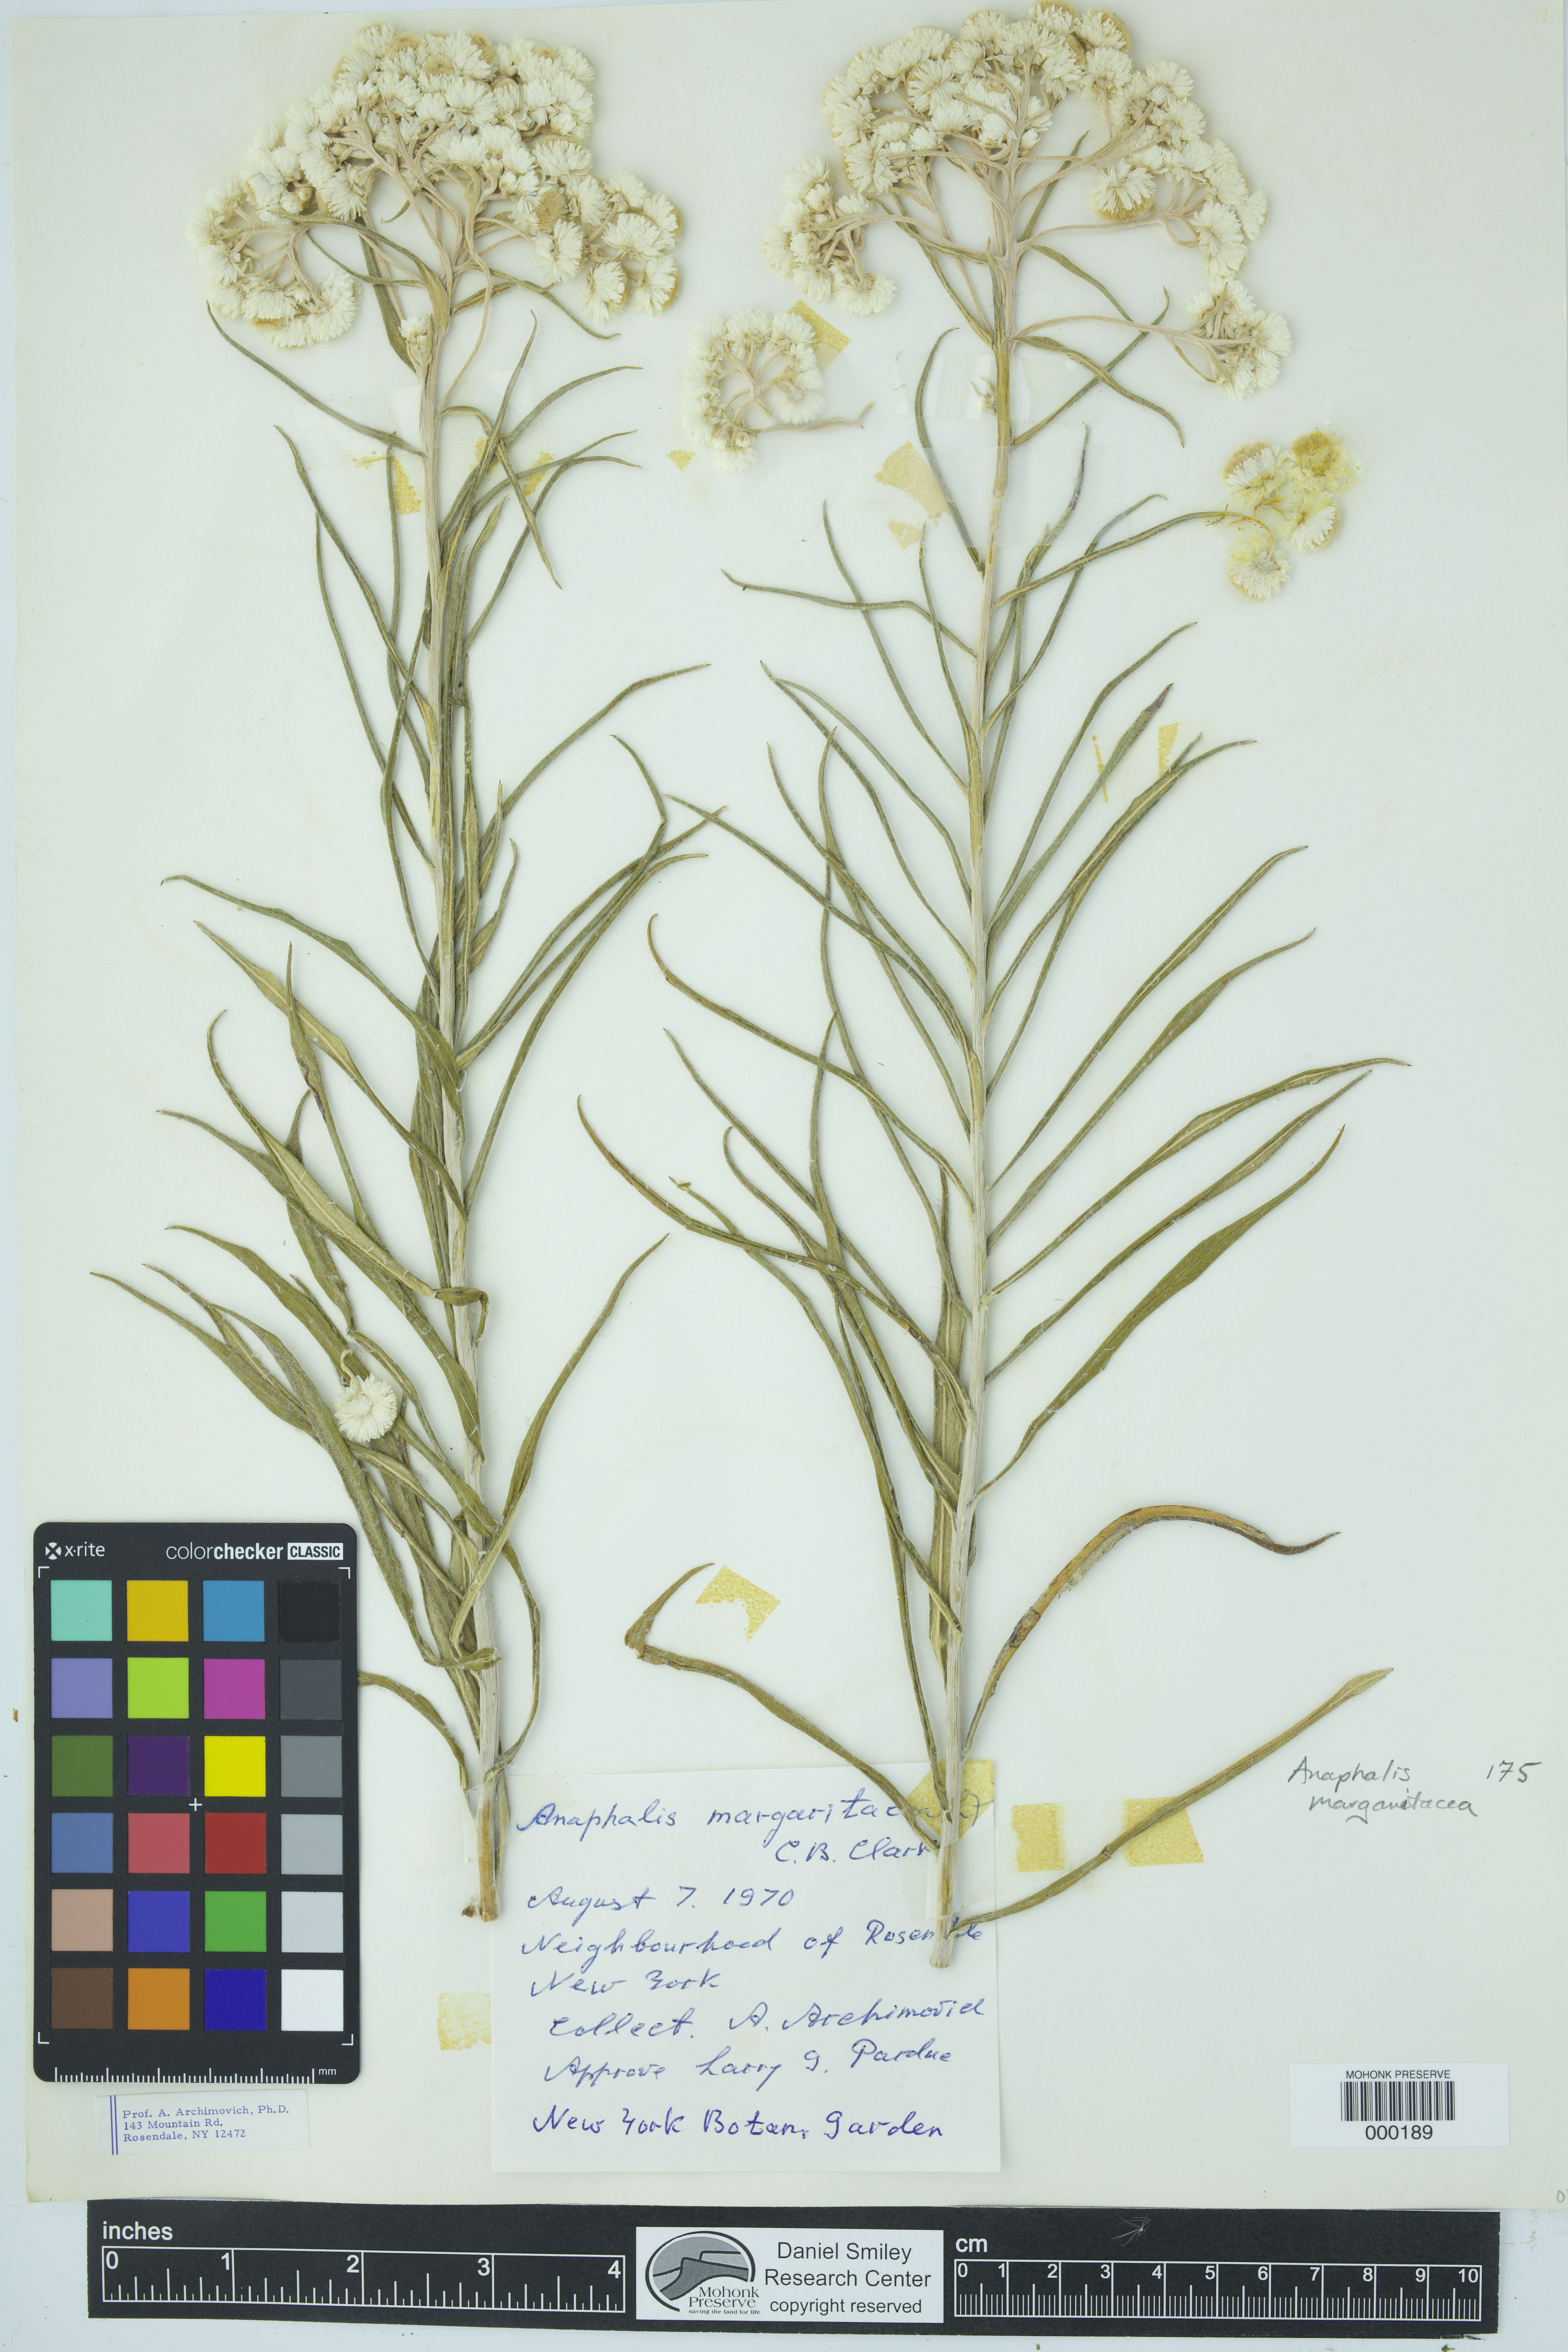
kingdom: Plantae
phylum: Tracheophyta
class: Magnoliopsida
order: Asterales
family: Asteraceae
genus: Anaphalis
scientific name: Anaphalis margaritacea
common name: Pearly everlasting
